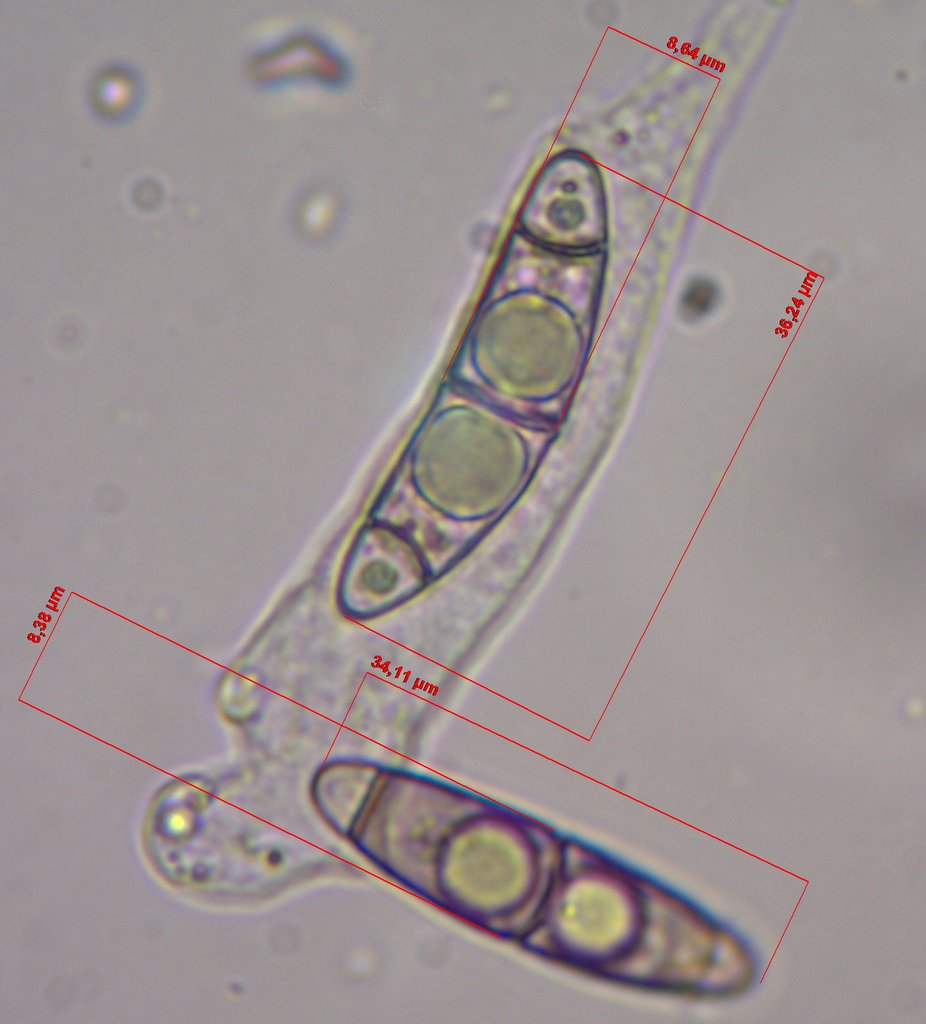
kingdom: Fungi
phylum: Ascomycota
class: Sordariomycetes
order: Coronophorales
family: Chaetosphaerellaceae
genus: Chaetosphaerella
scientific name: Chaetosphaerella phaeostroma
